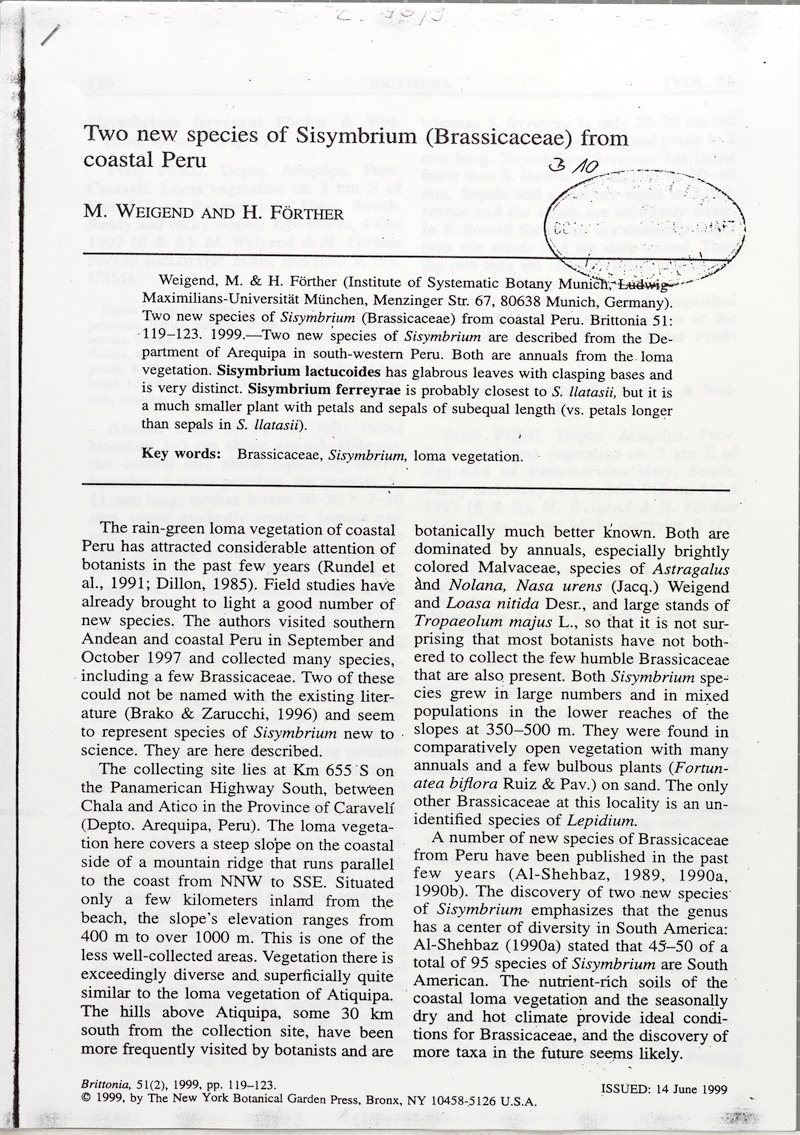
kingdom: Plantae
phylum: Tracheophyta
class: Magnoliopsida
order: Brassicales
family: Brassicaceae
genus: Dictyophragmus
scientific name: Dictyophragmus lactucoides
